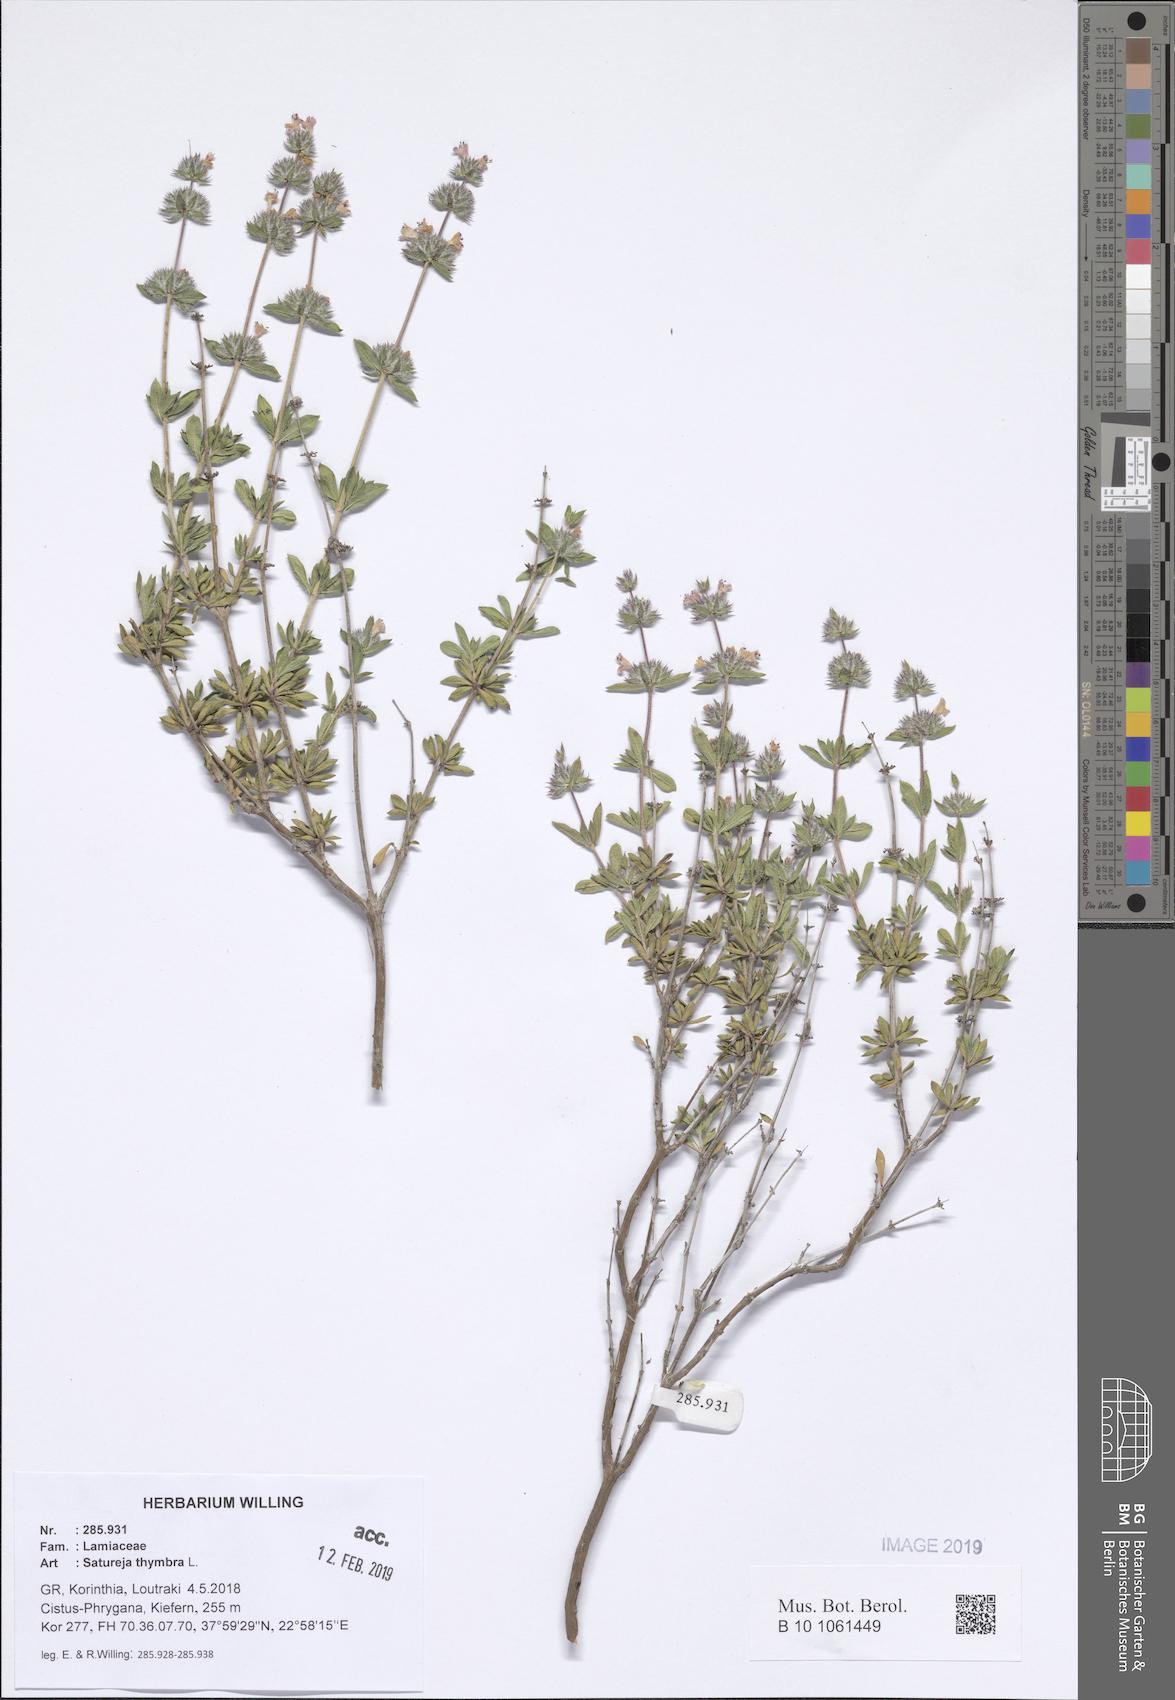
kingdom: Plantae
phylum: Tracheophyta
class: Magnoliopsida
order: Lamiales
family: Lamiaceae
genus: Satureja
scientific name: Satureja thymbra
